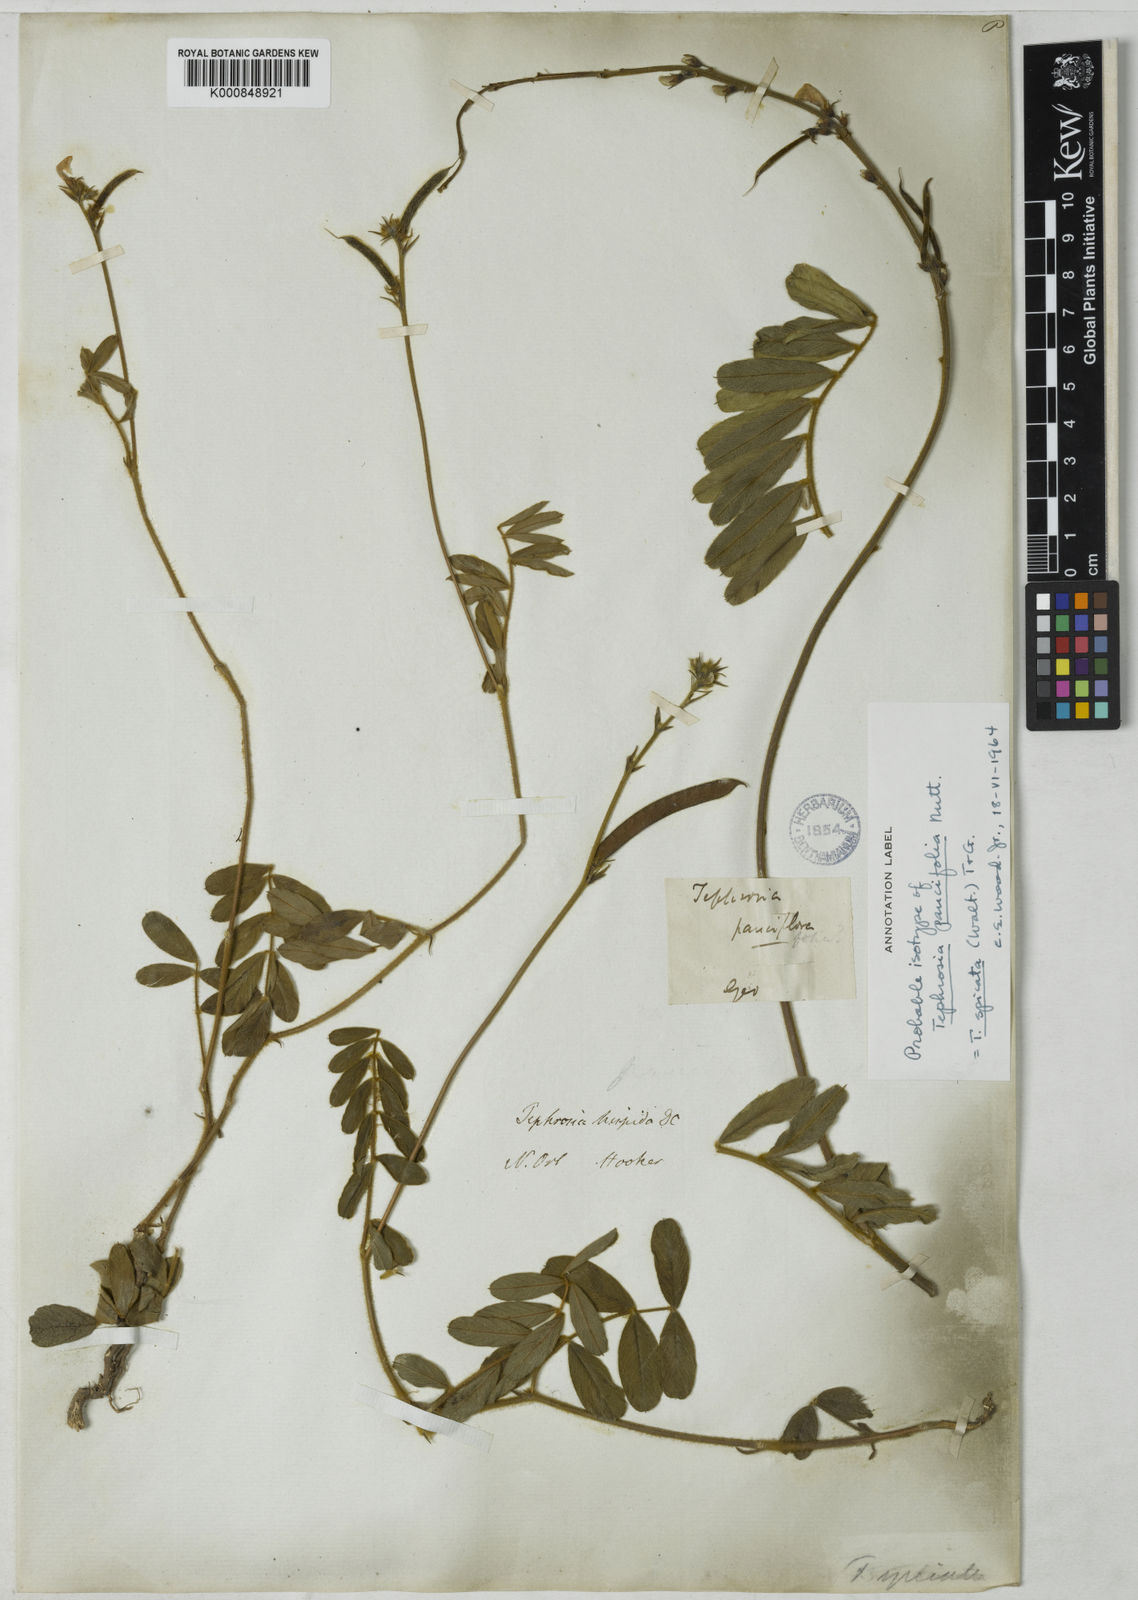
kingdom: Plantae
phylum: Tracheophyta
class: Magnoliopsida
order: Fabales
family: Fabaceae
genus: Tephrosia
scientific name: Tephrosia spicata
